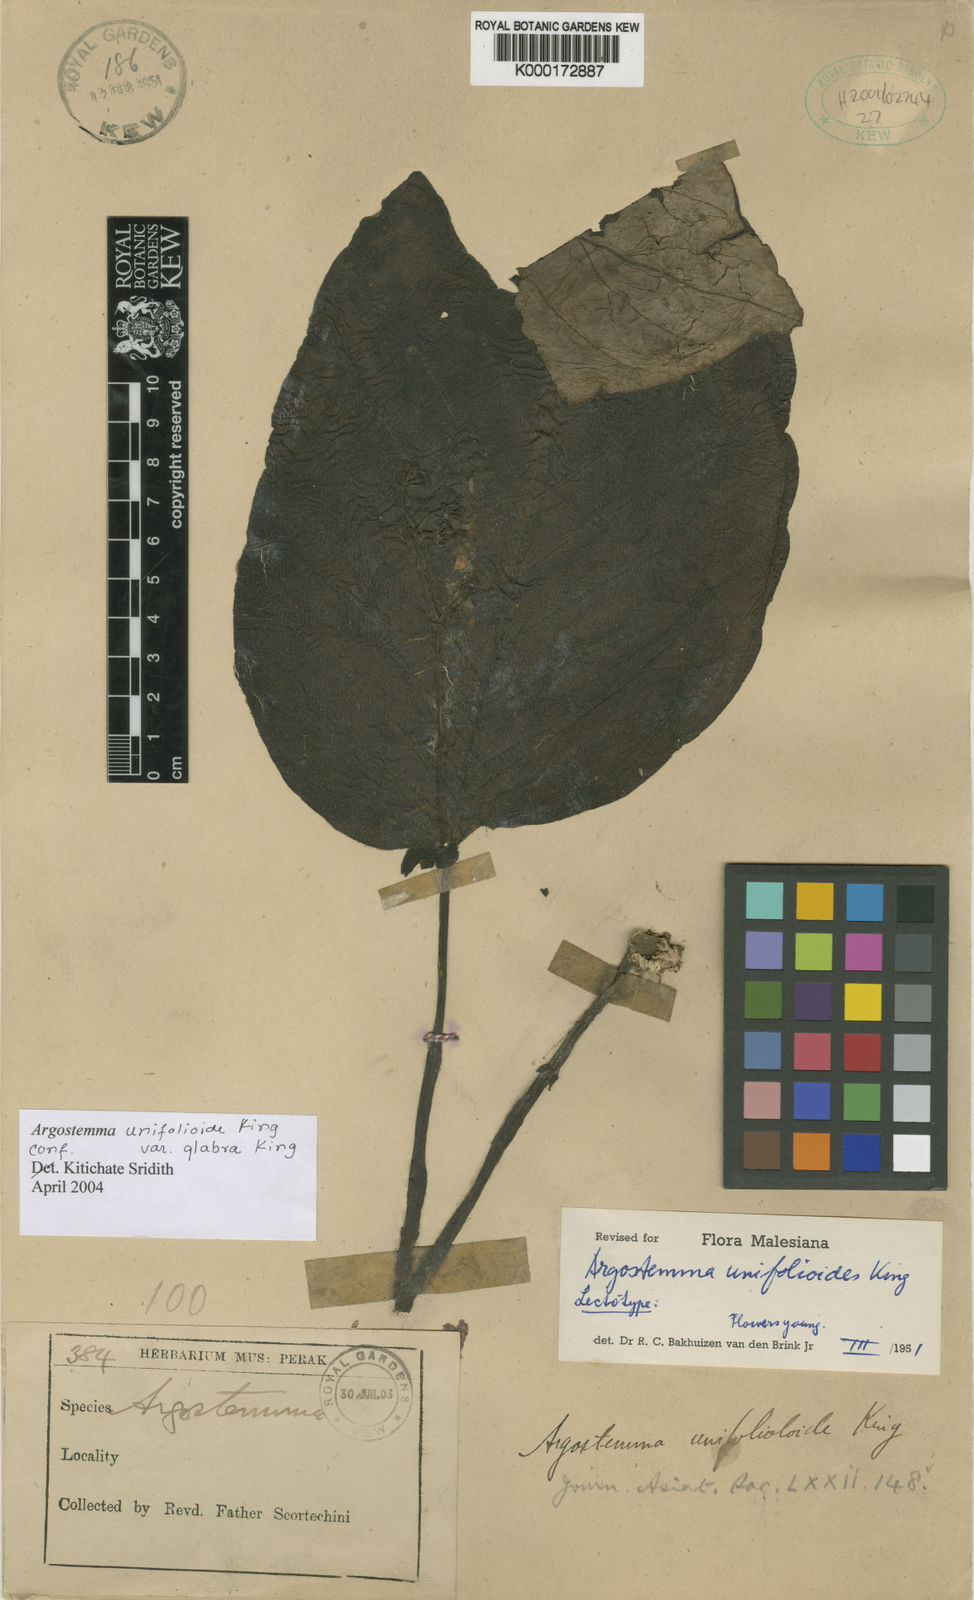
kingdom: Plantae
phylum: Tracheophyta
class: Magnoliopsida
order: Gentianales
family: Rubiaceae
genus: Argostemma
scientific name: Argostemma unifolioloides
